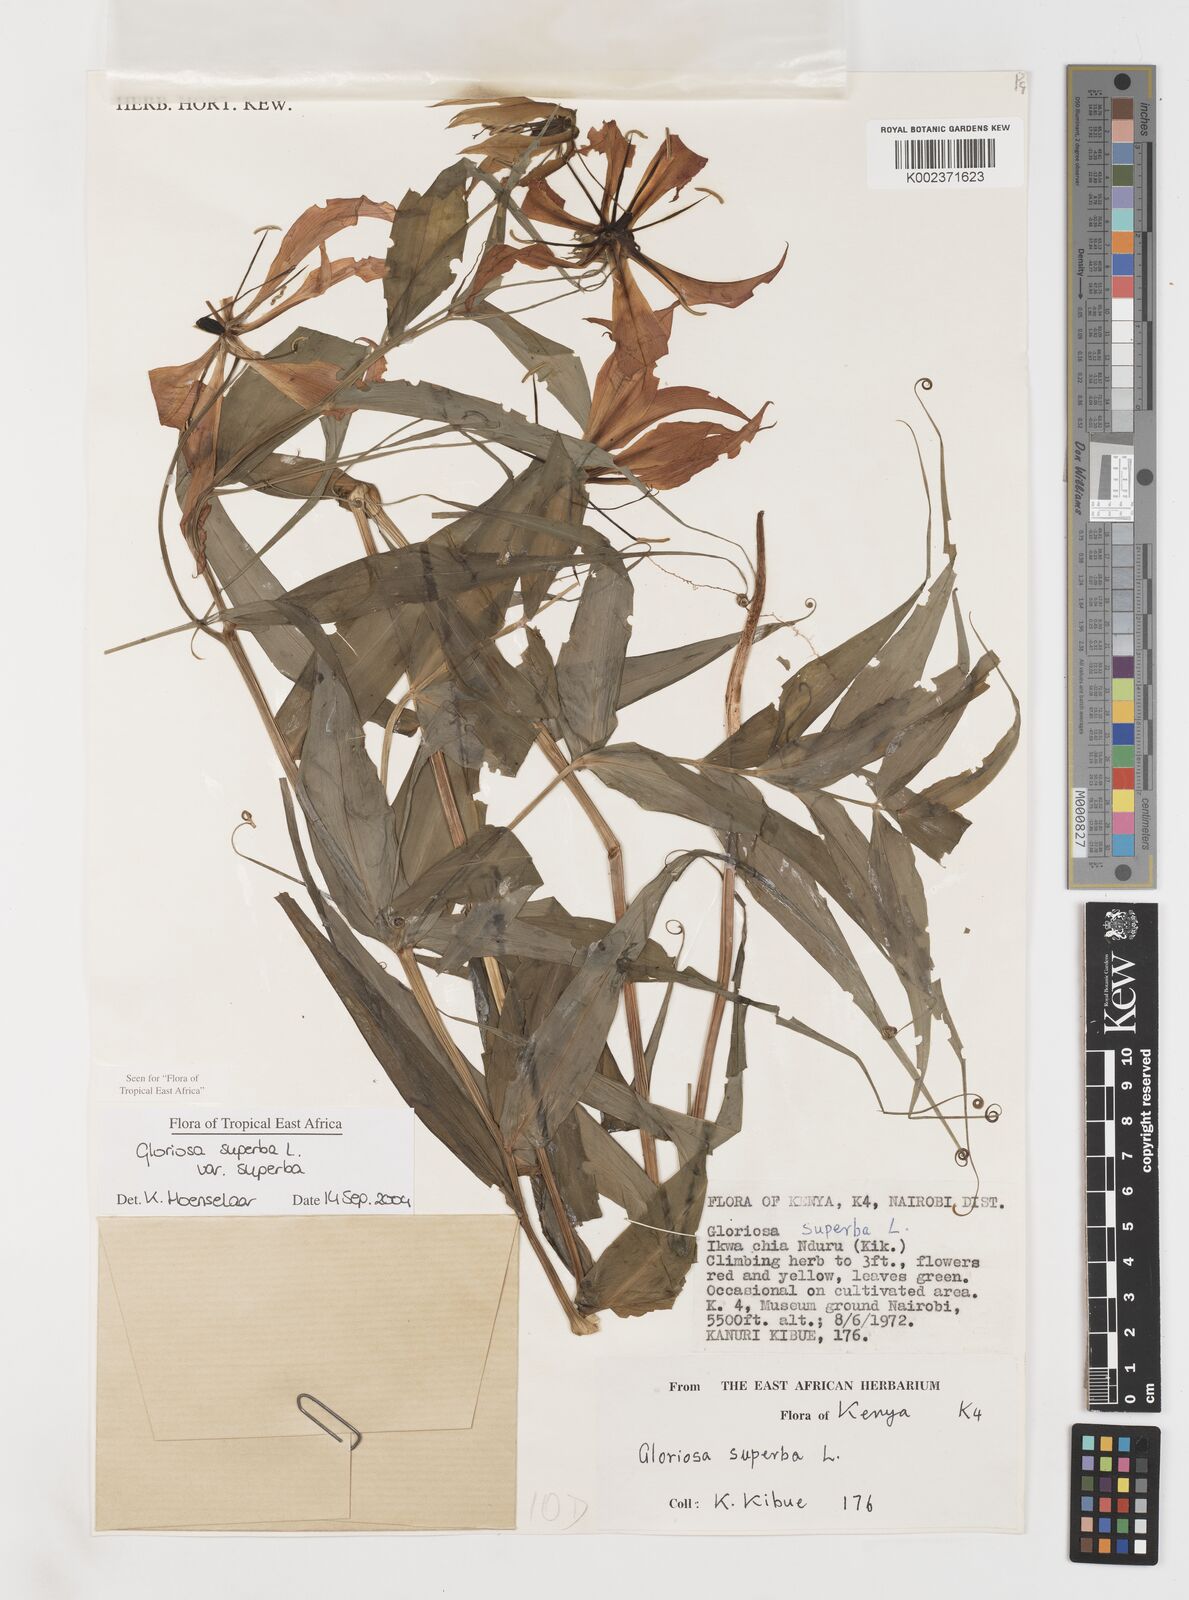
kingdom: Plantae
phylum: Tracheophyta
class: Liliopsida
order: Liliales
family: Colchicaceae
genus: Gloriosa
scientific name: Gloriosa simplex
